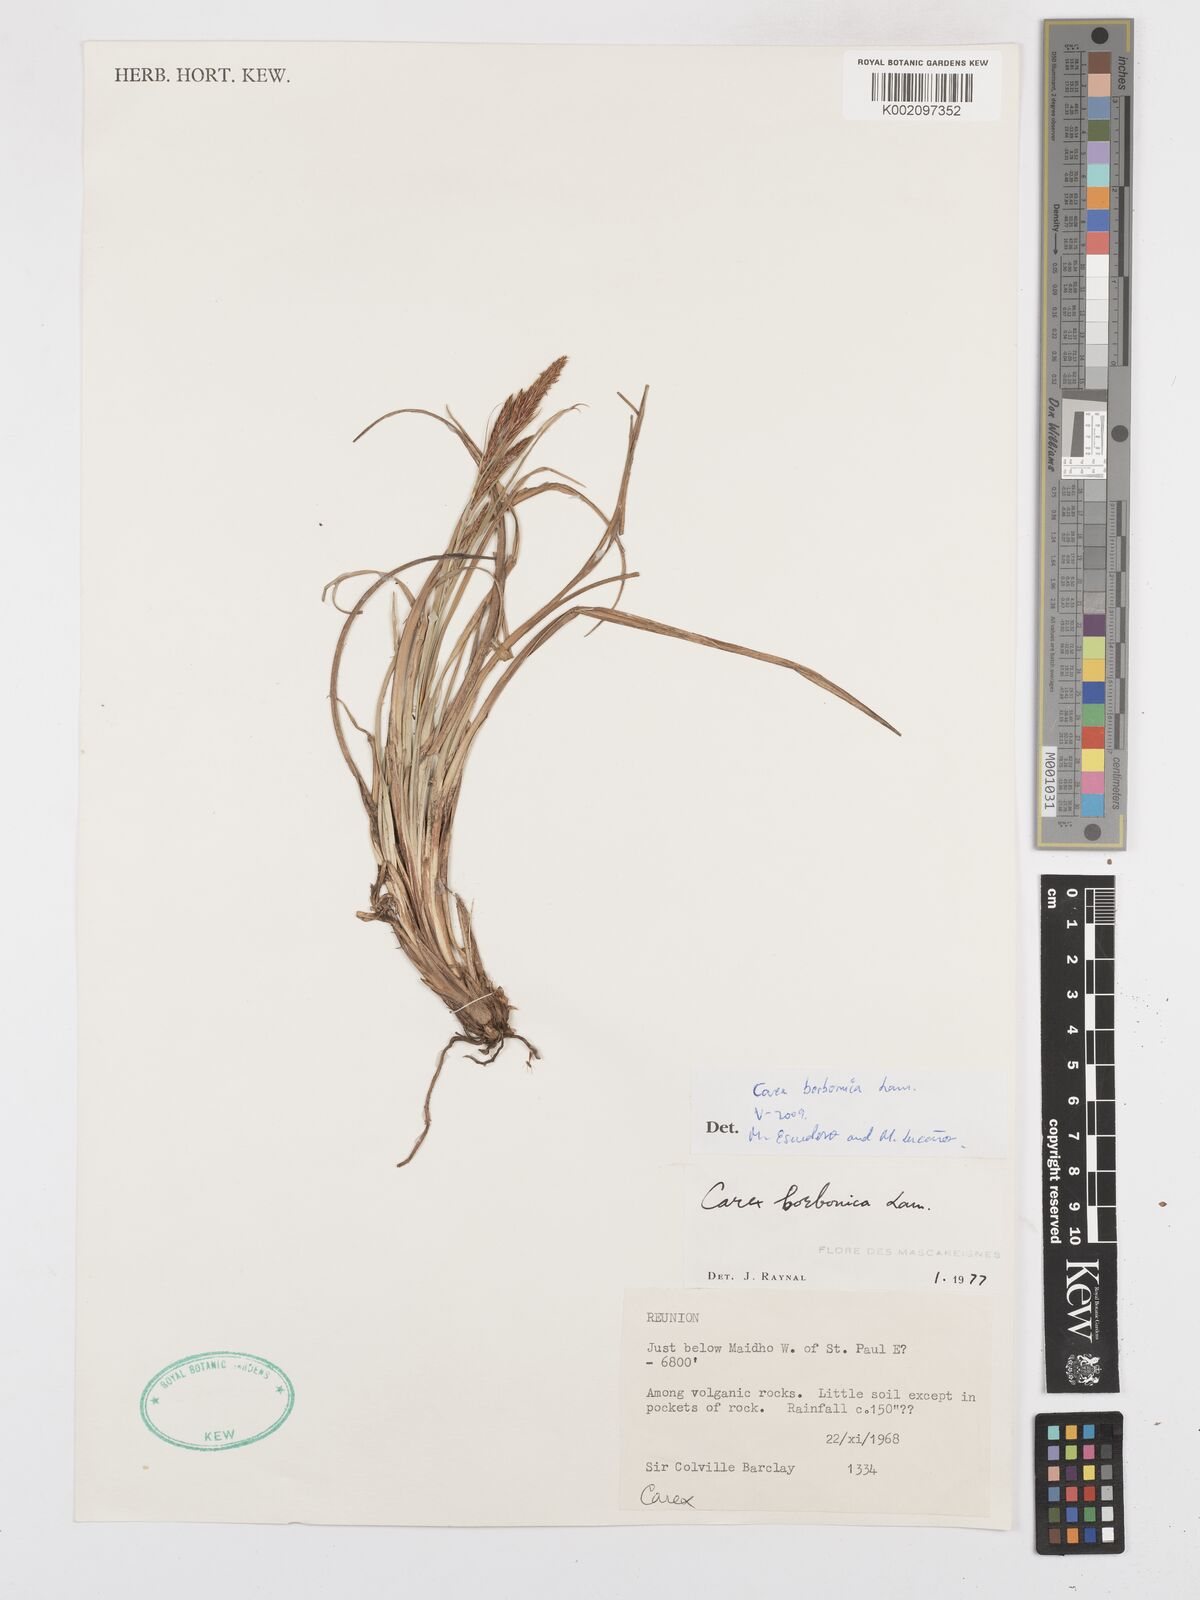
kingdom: Plantae
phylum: Tracheophyta
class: Liliopsida
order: Poales
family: Cyperaceae
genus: Carex
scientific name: Carex borbonica
